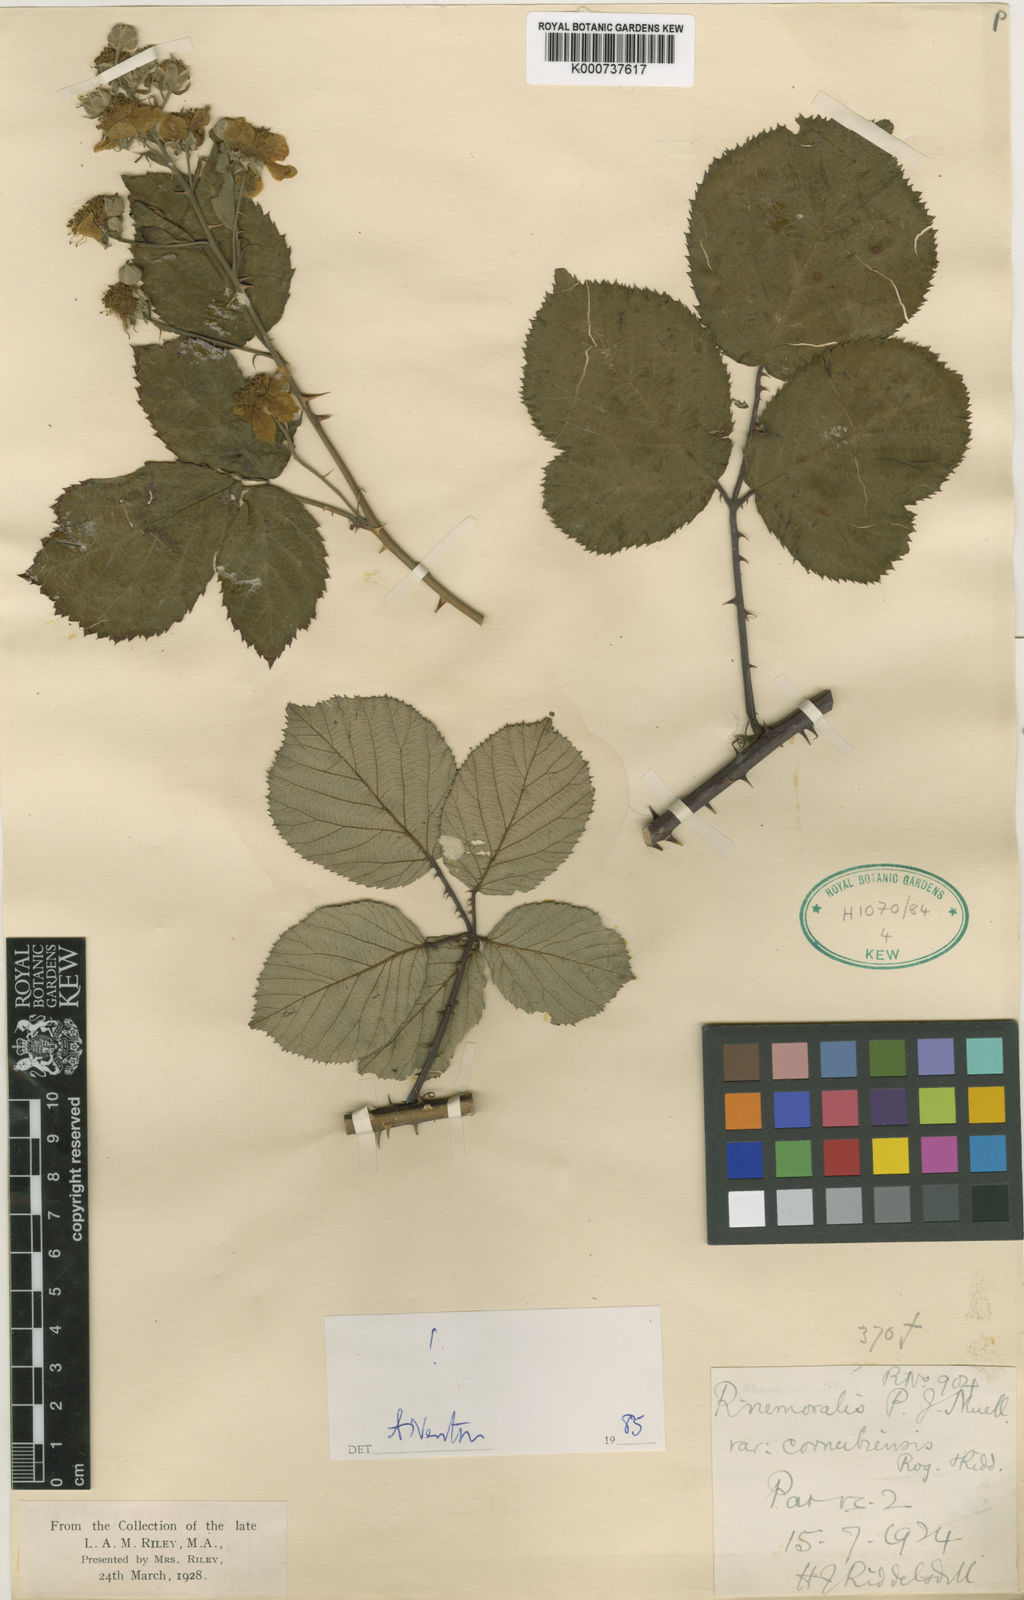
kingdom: Plantae
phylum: Tracheophyta
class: Magnoliopsida
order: Rosales
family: Rosaceae
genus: Rubus
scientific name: Rubus cornubiensis
